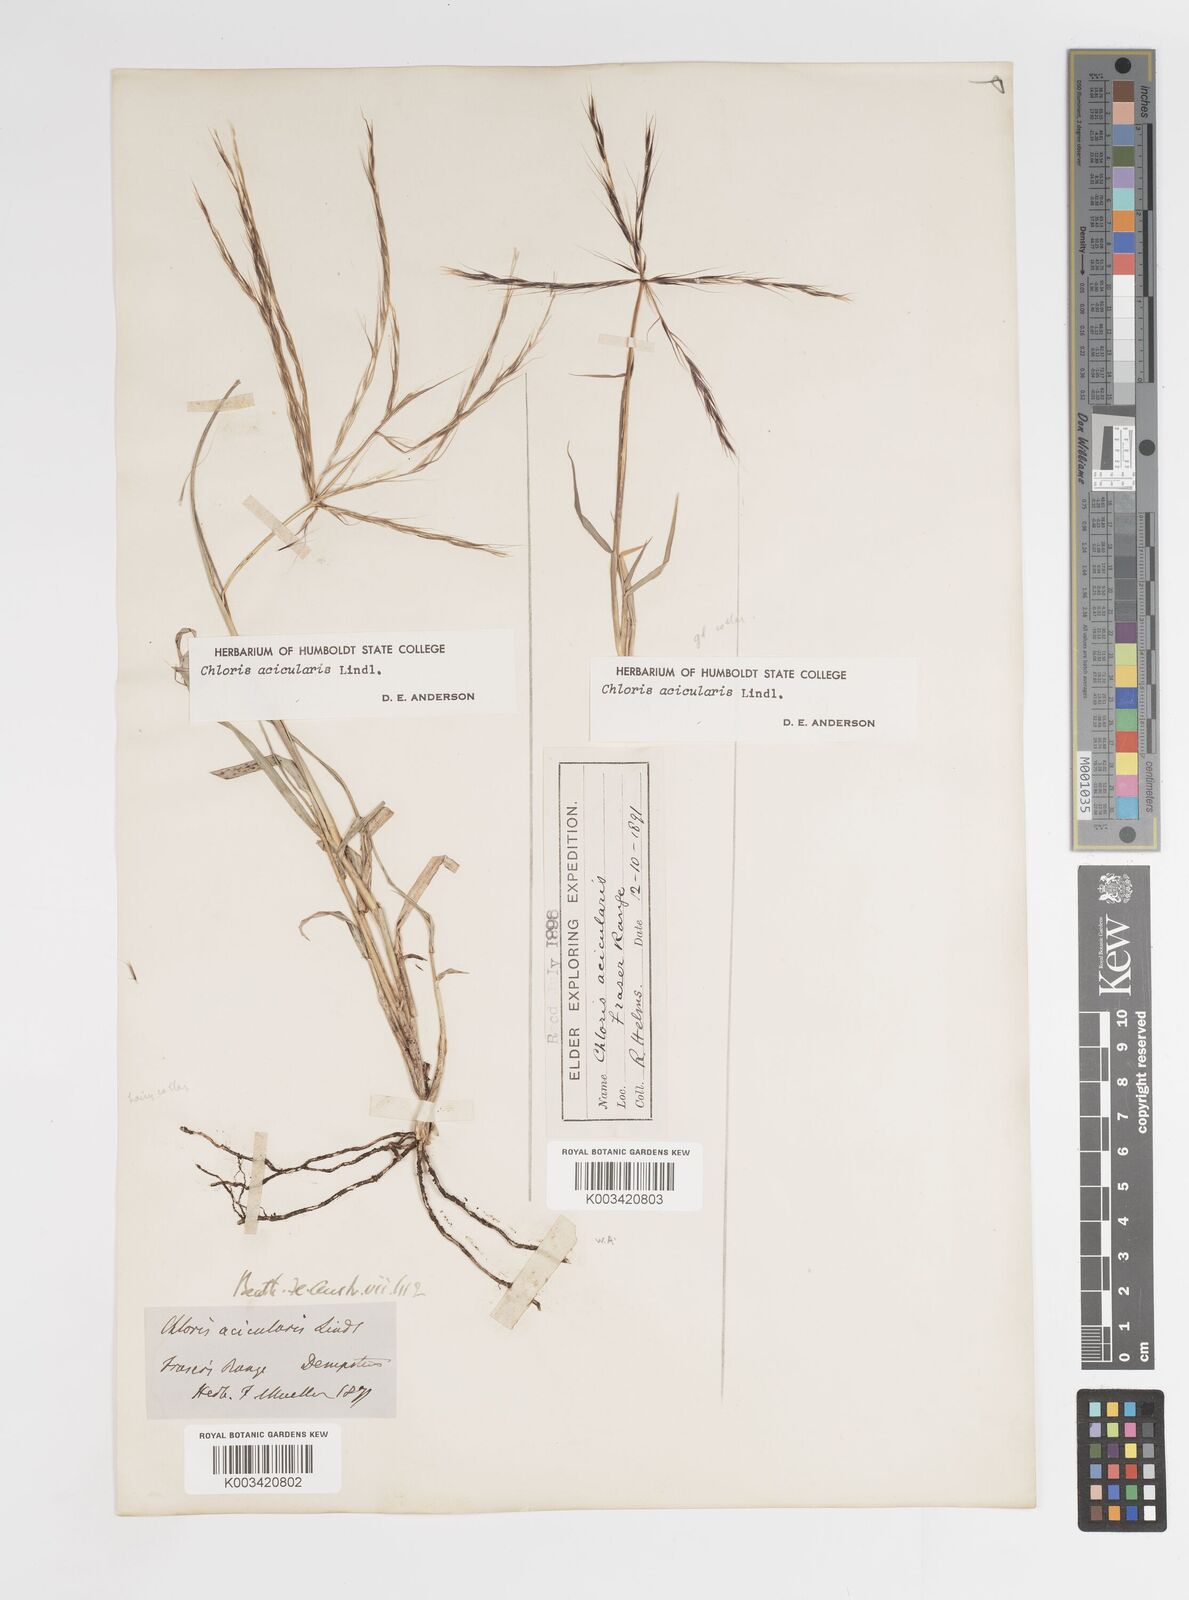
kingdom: Plantae
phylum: Tracheophyta
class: Liliopsida
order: Poales
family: Poaceae
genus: Enteropogon
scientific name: Enteropogon acicularis
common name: Curly windmill grass
